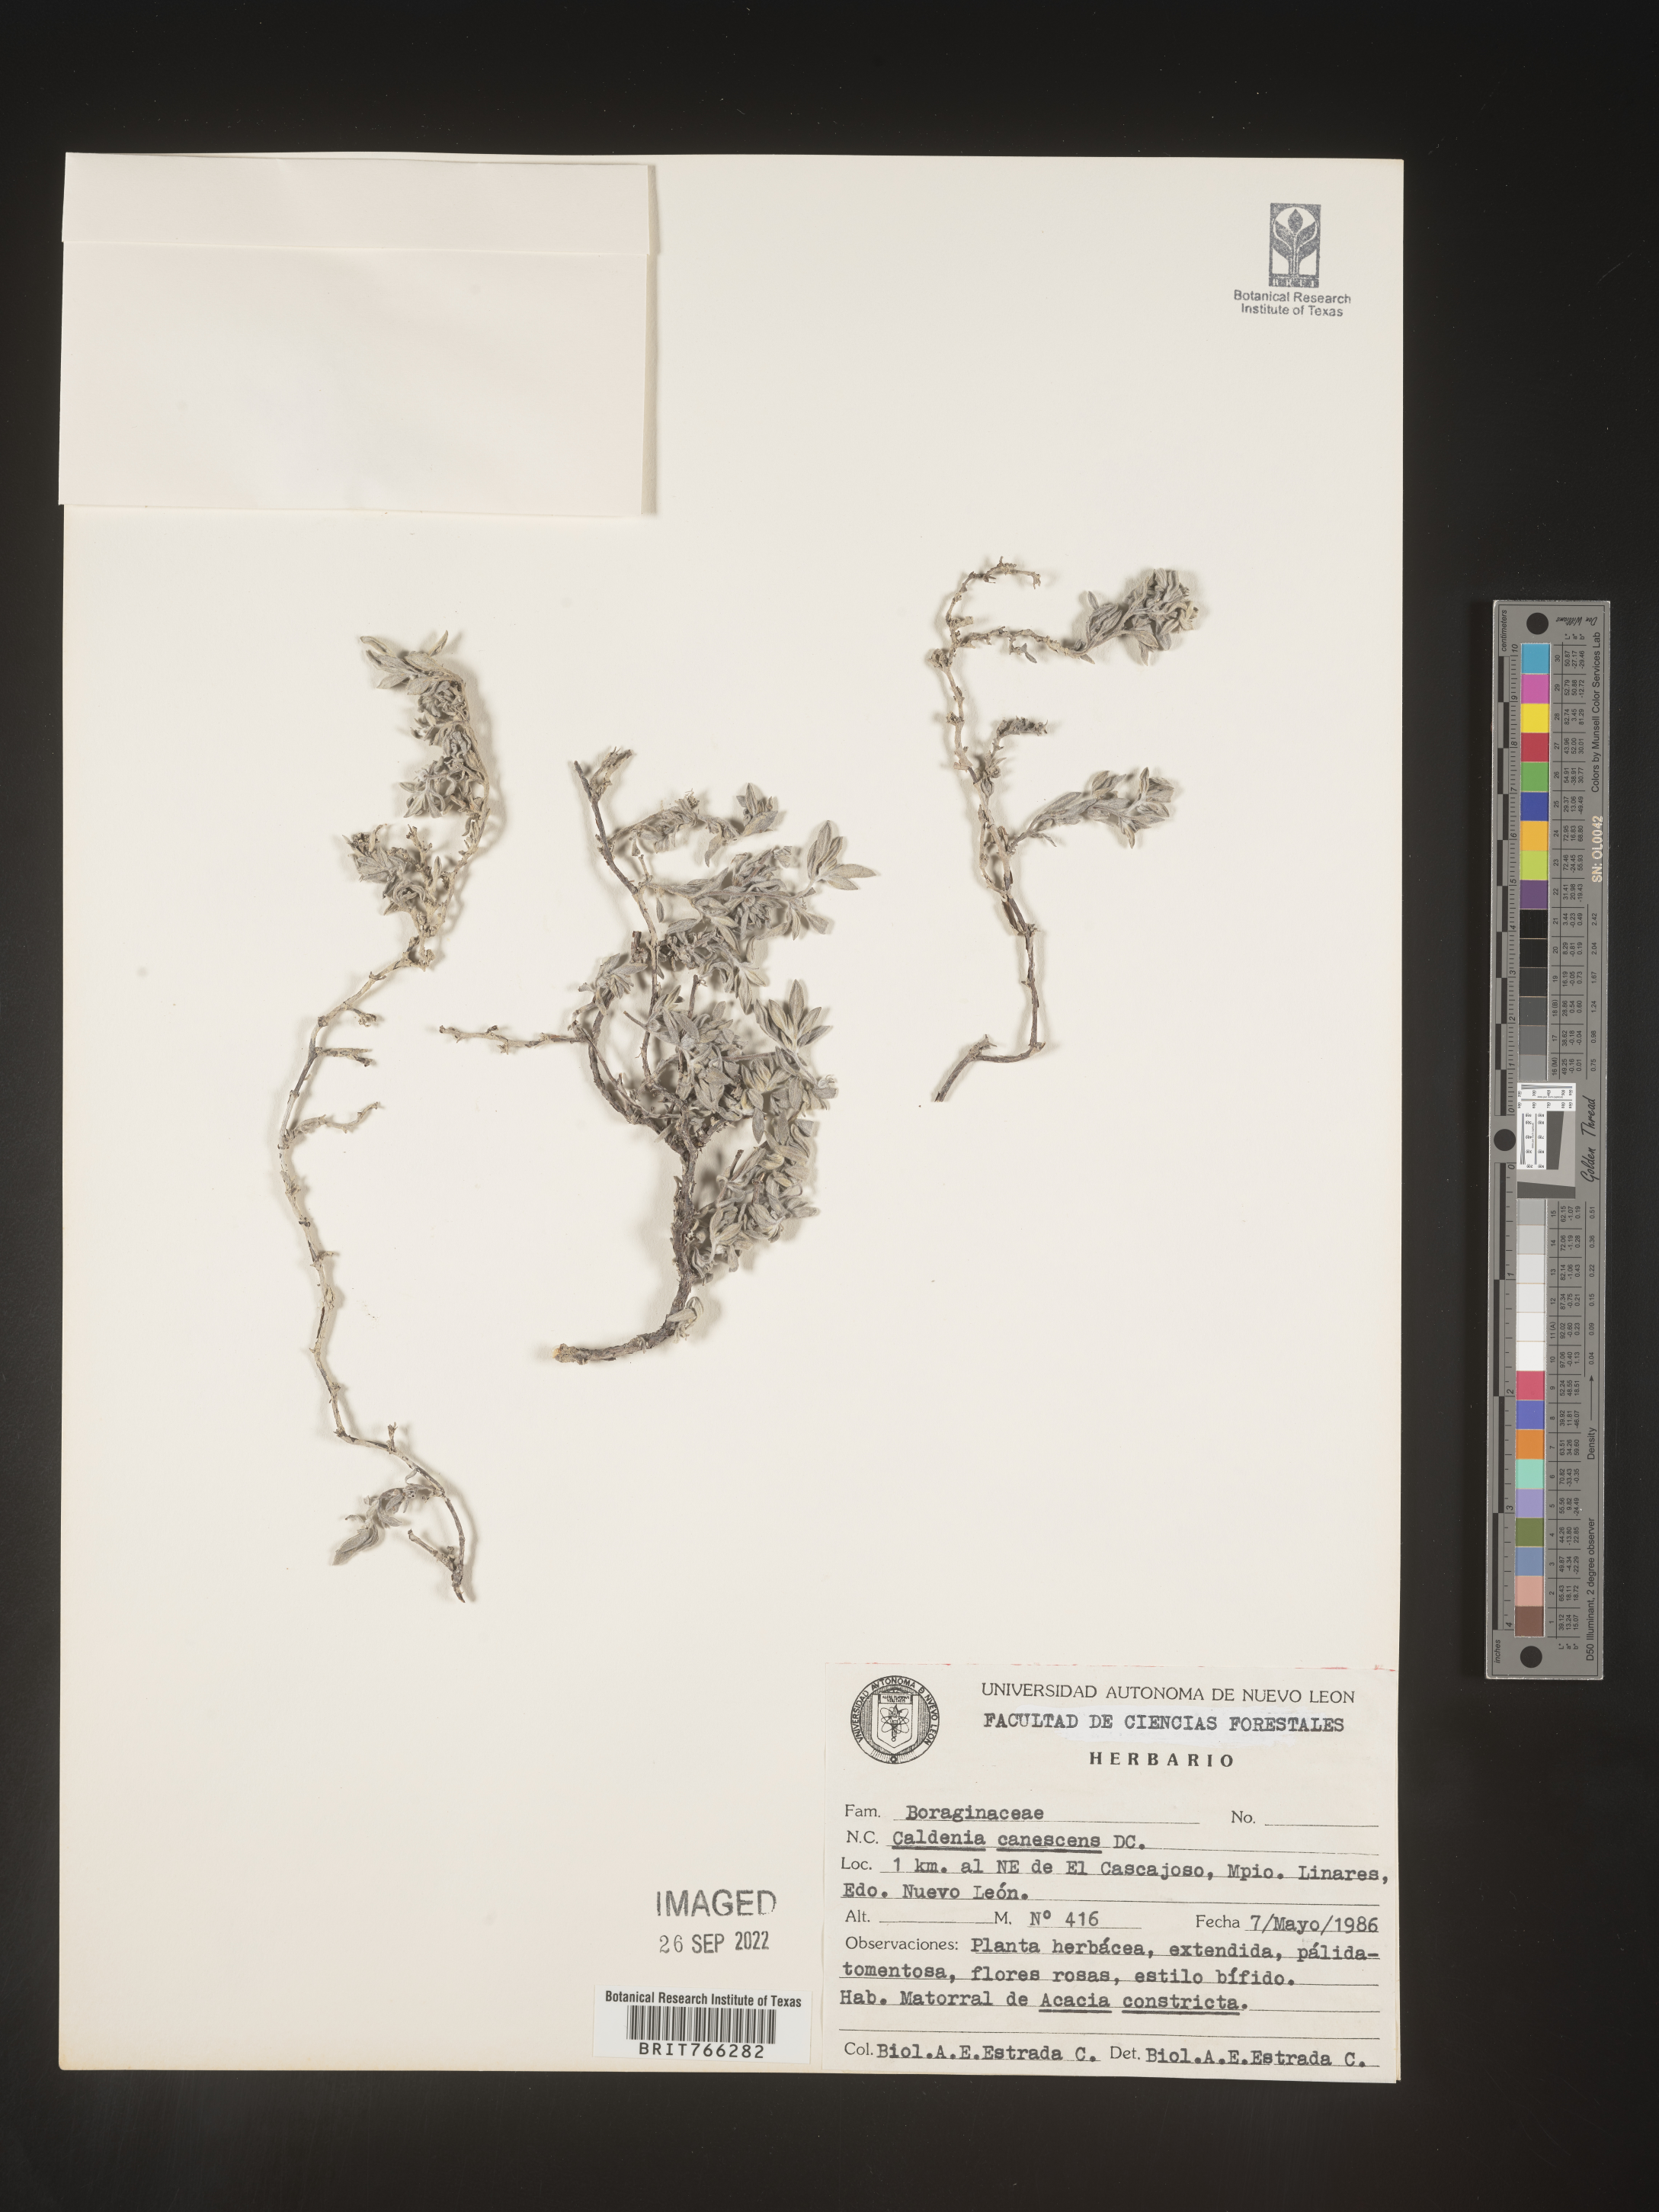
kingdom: Plantae
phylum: Tracheophyta
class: Magnoliopsida
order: Boraginales
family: Coldeniaceae
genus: Coldenia
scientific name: Coldenia
